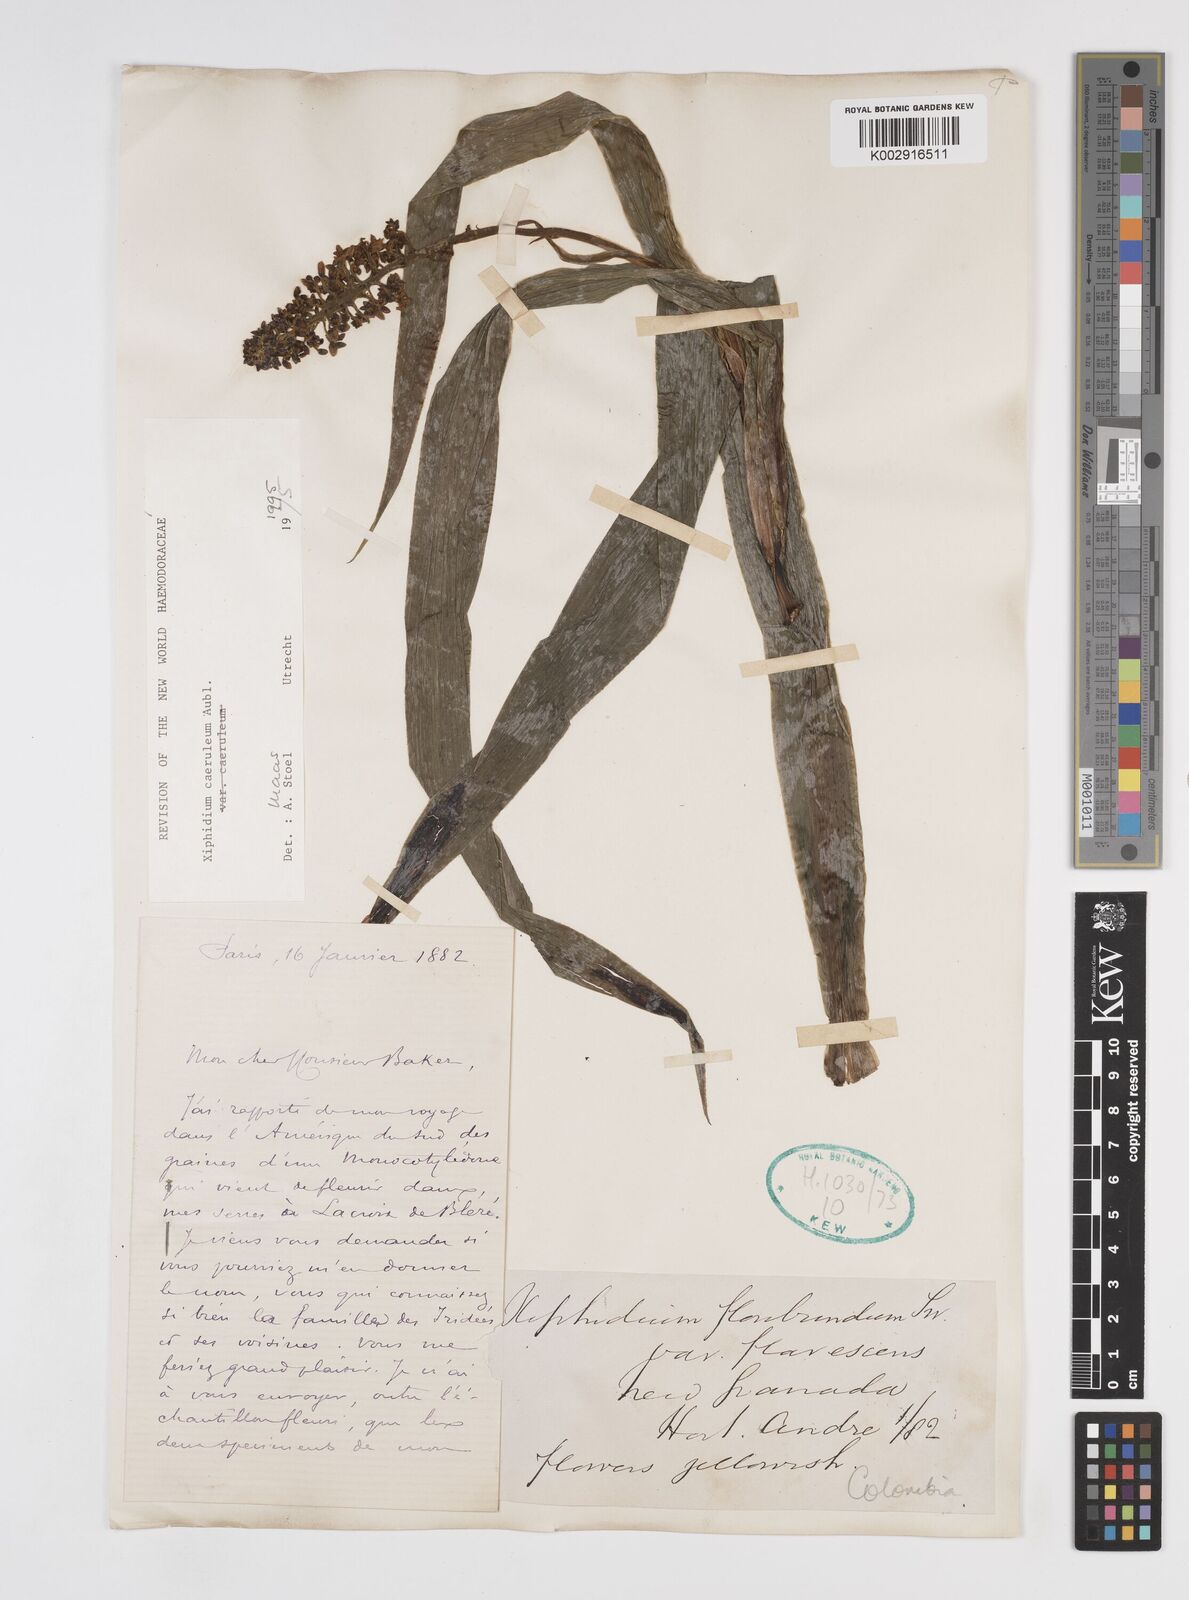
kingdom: Plantae
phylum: Tracheophyta
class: Liliopsida
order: Commelinales
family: Haemodoraceae
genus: Xiphidium
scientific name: Xiphidium caeruleum
